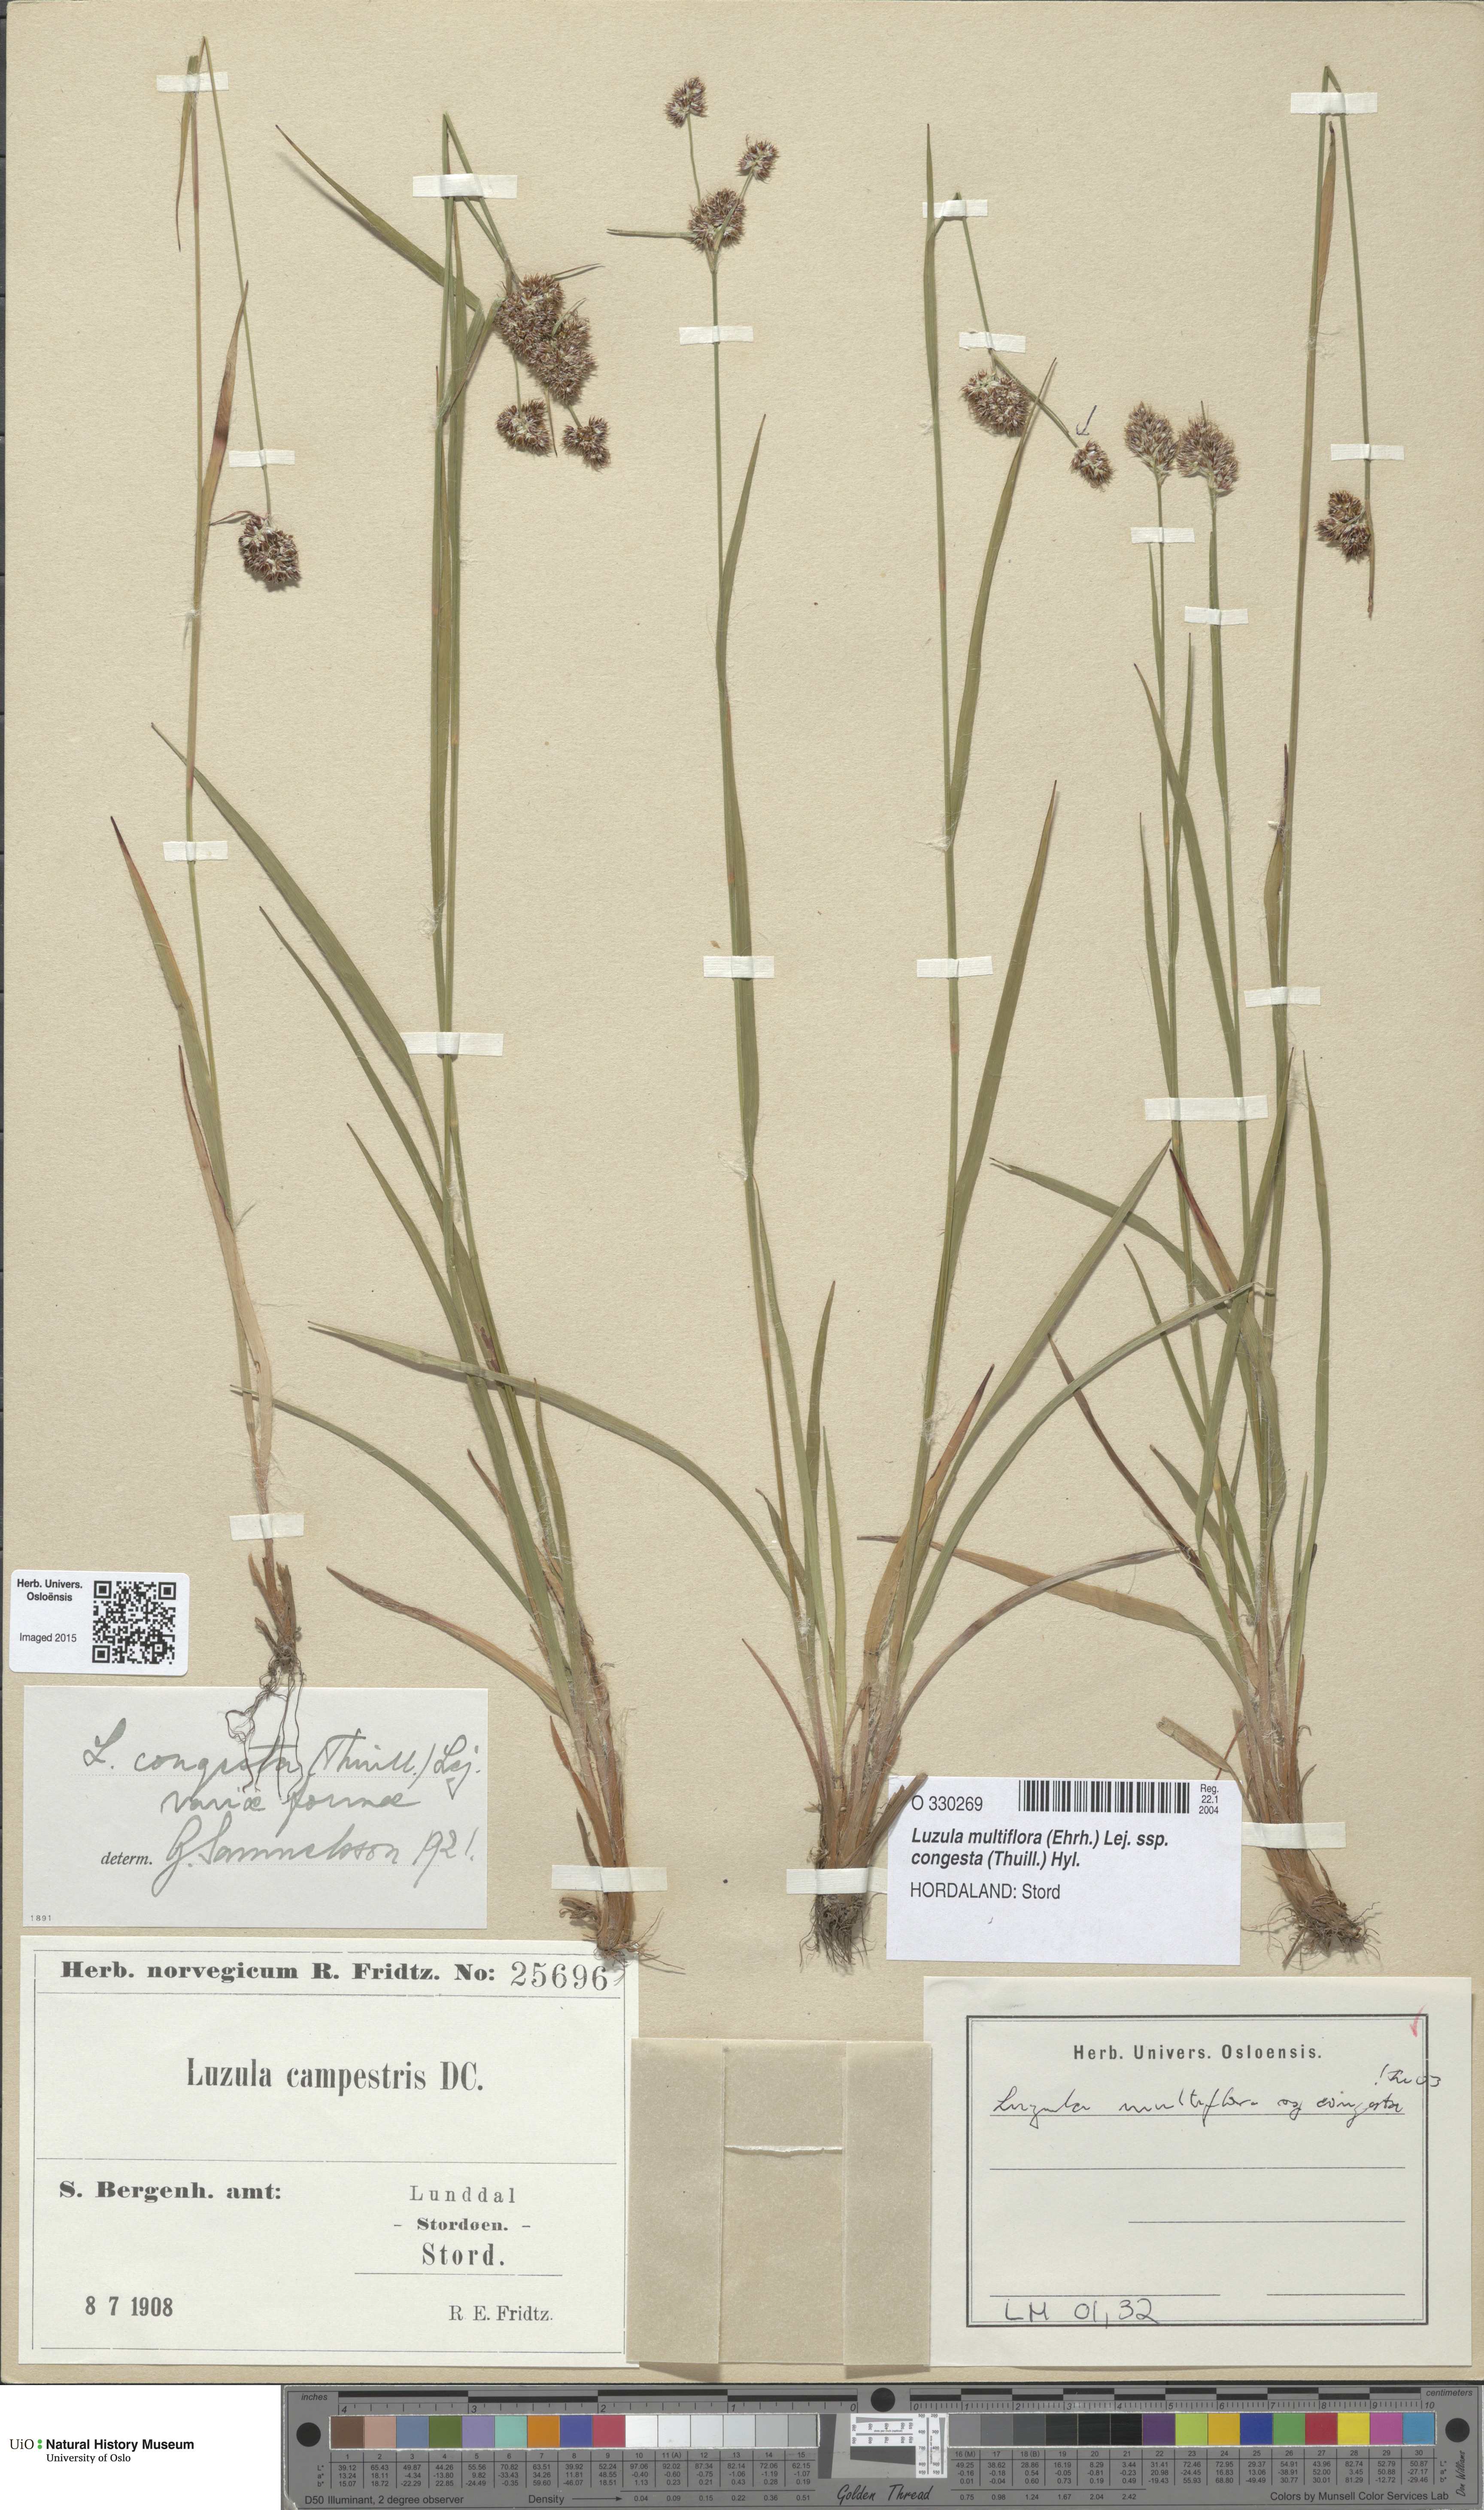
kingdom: Plantae
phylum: Tracheophyta
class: Liliopsida
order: Poales
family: Juncaceae
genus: Luzula
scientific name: Luzula congesta
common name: Heath woodrush
